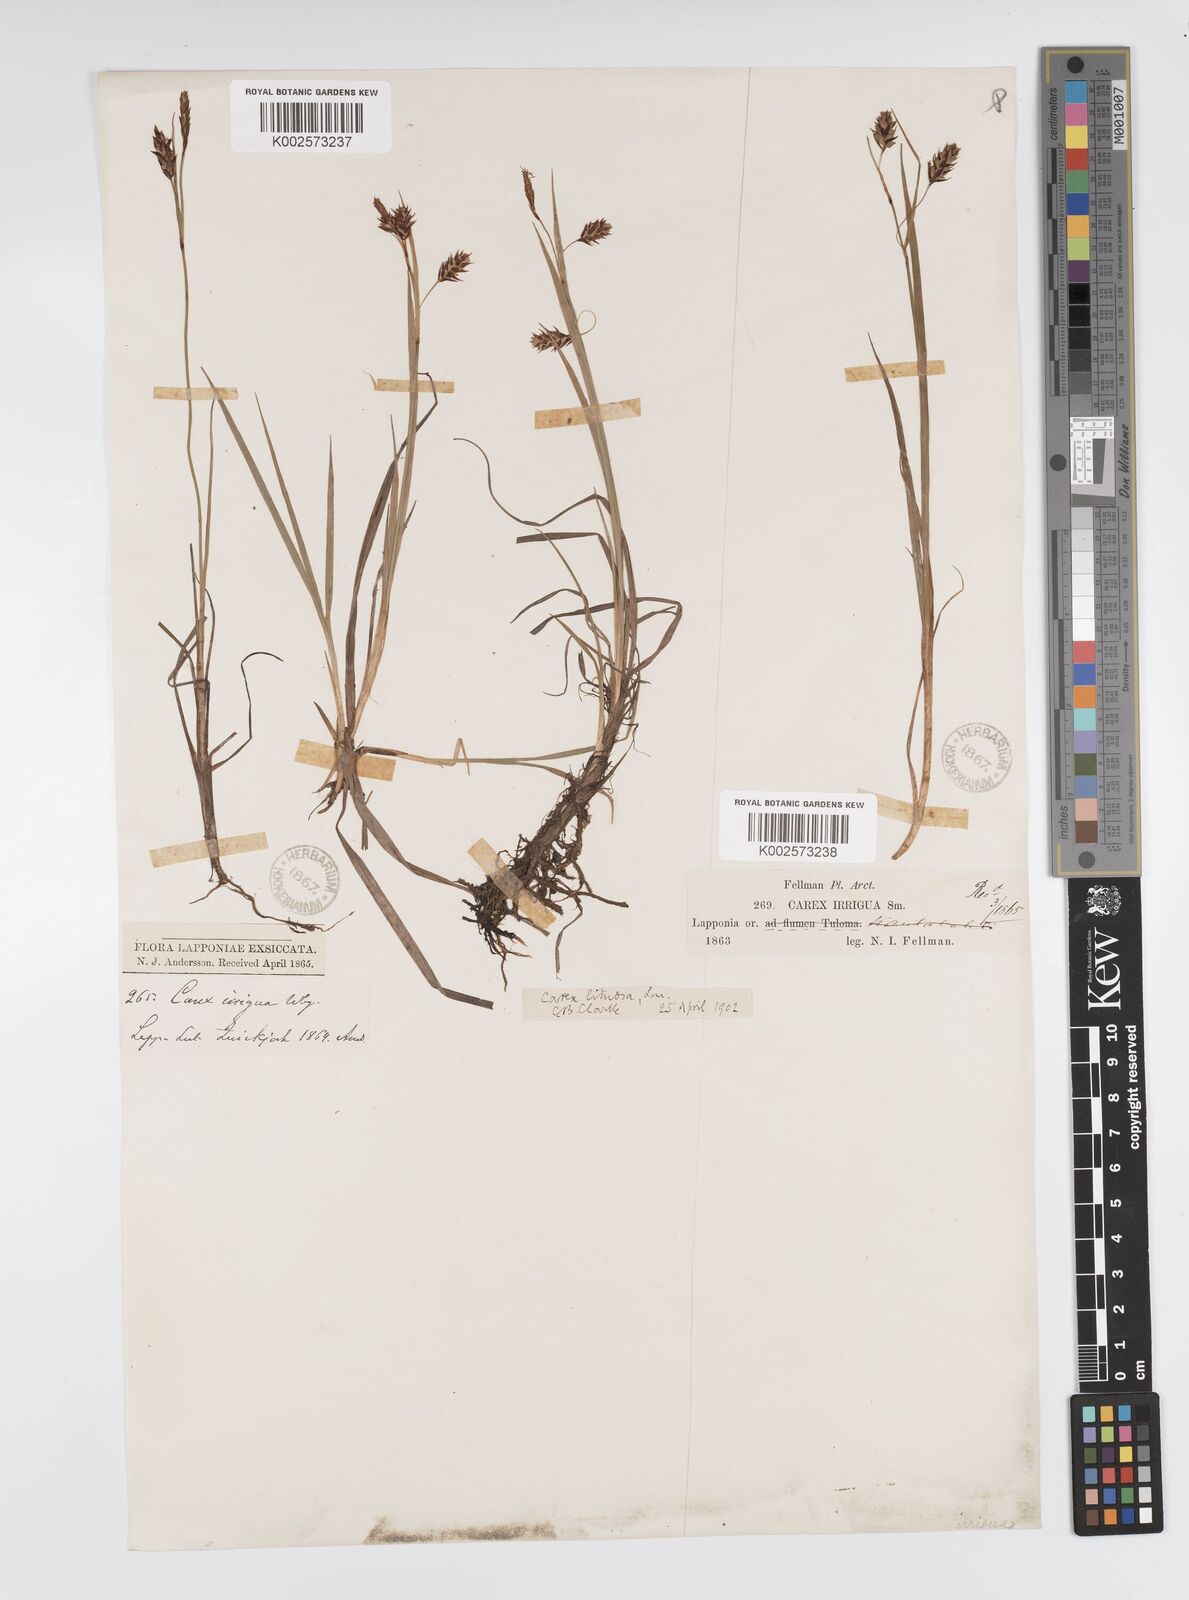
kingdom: Plantae
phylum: Tracheophyta
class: Liliopsida
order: Poales
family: Cyperaceae
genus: Carex
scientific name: Carex magellanica
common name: Bog sedge
